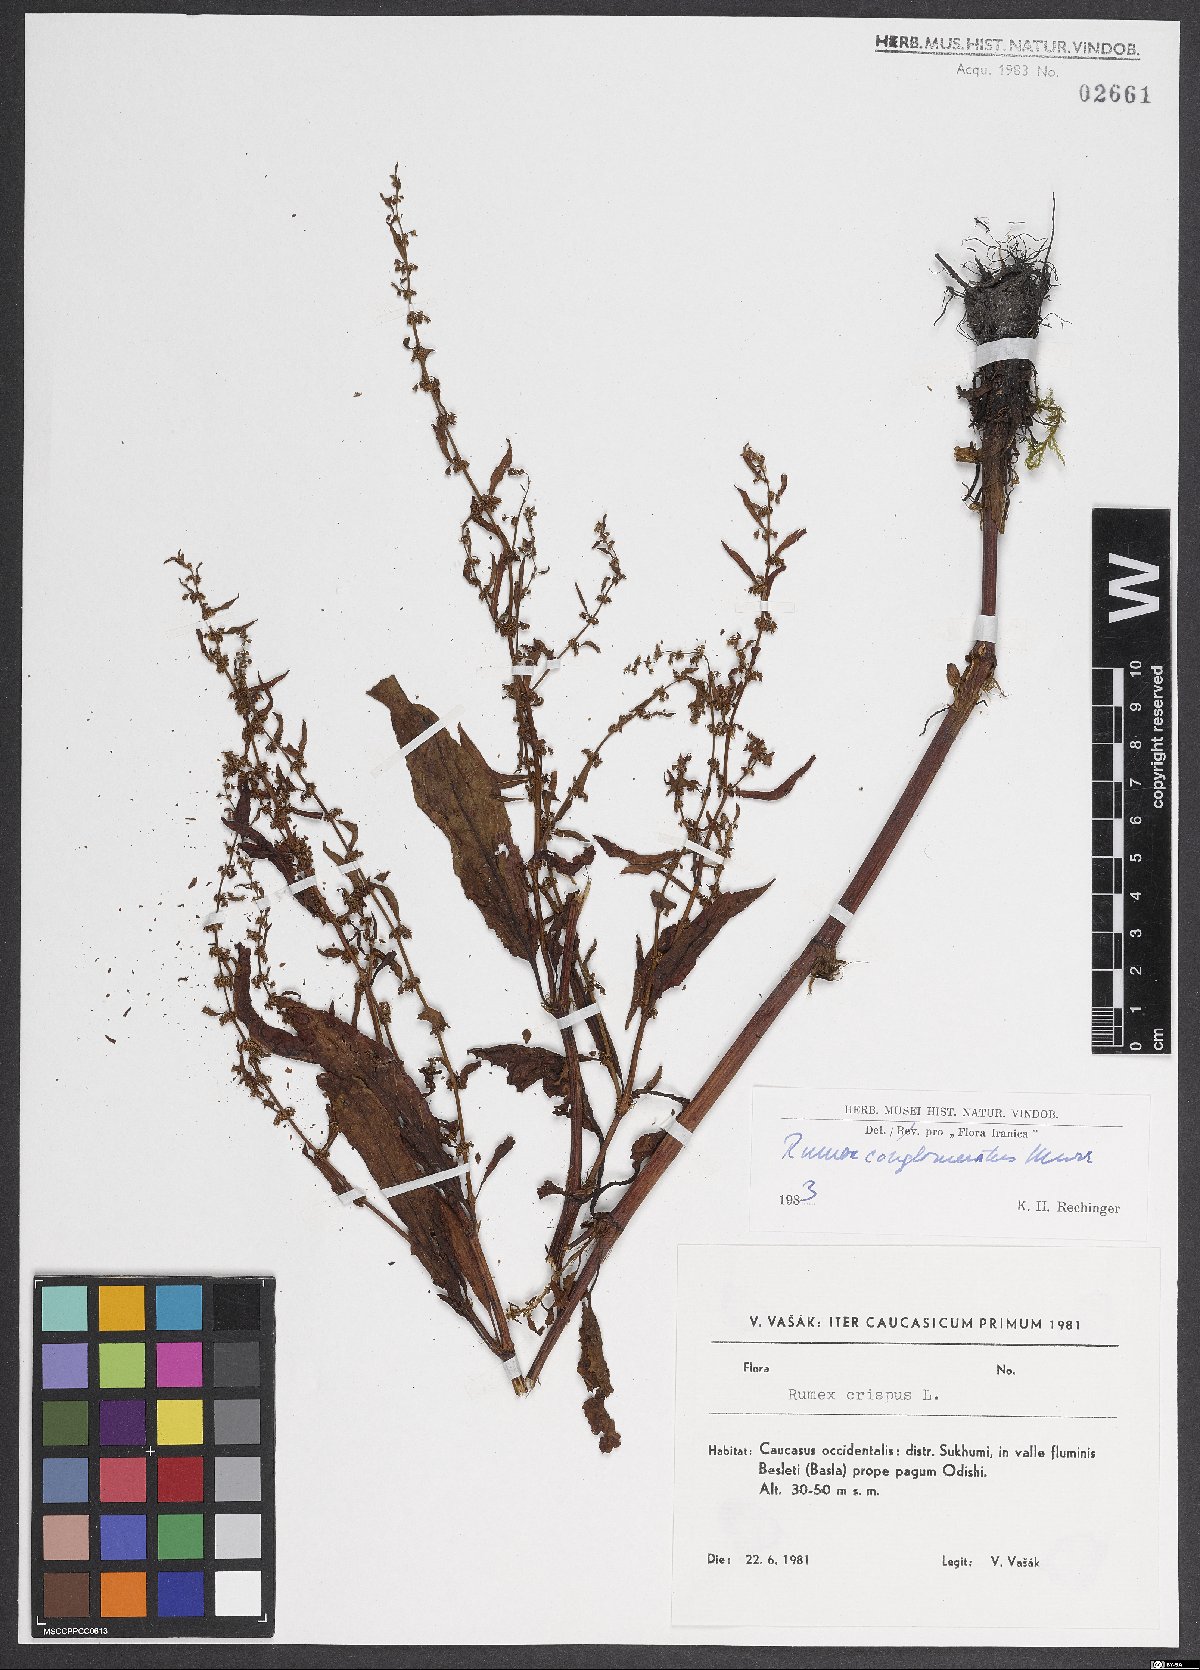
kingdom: Plantae
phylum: Tracheophyta
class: Magnoliopsida
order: Caryophyllales
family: Polygonaceae
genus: Rumex
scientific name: Rumex conglomeratus
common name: Clustered dock
